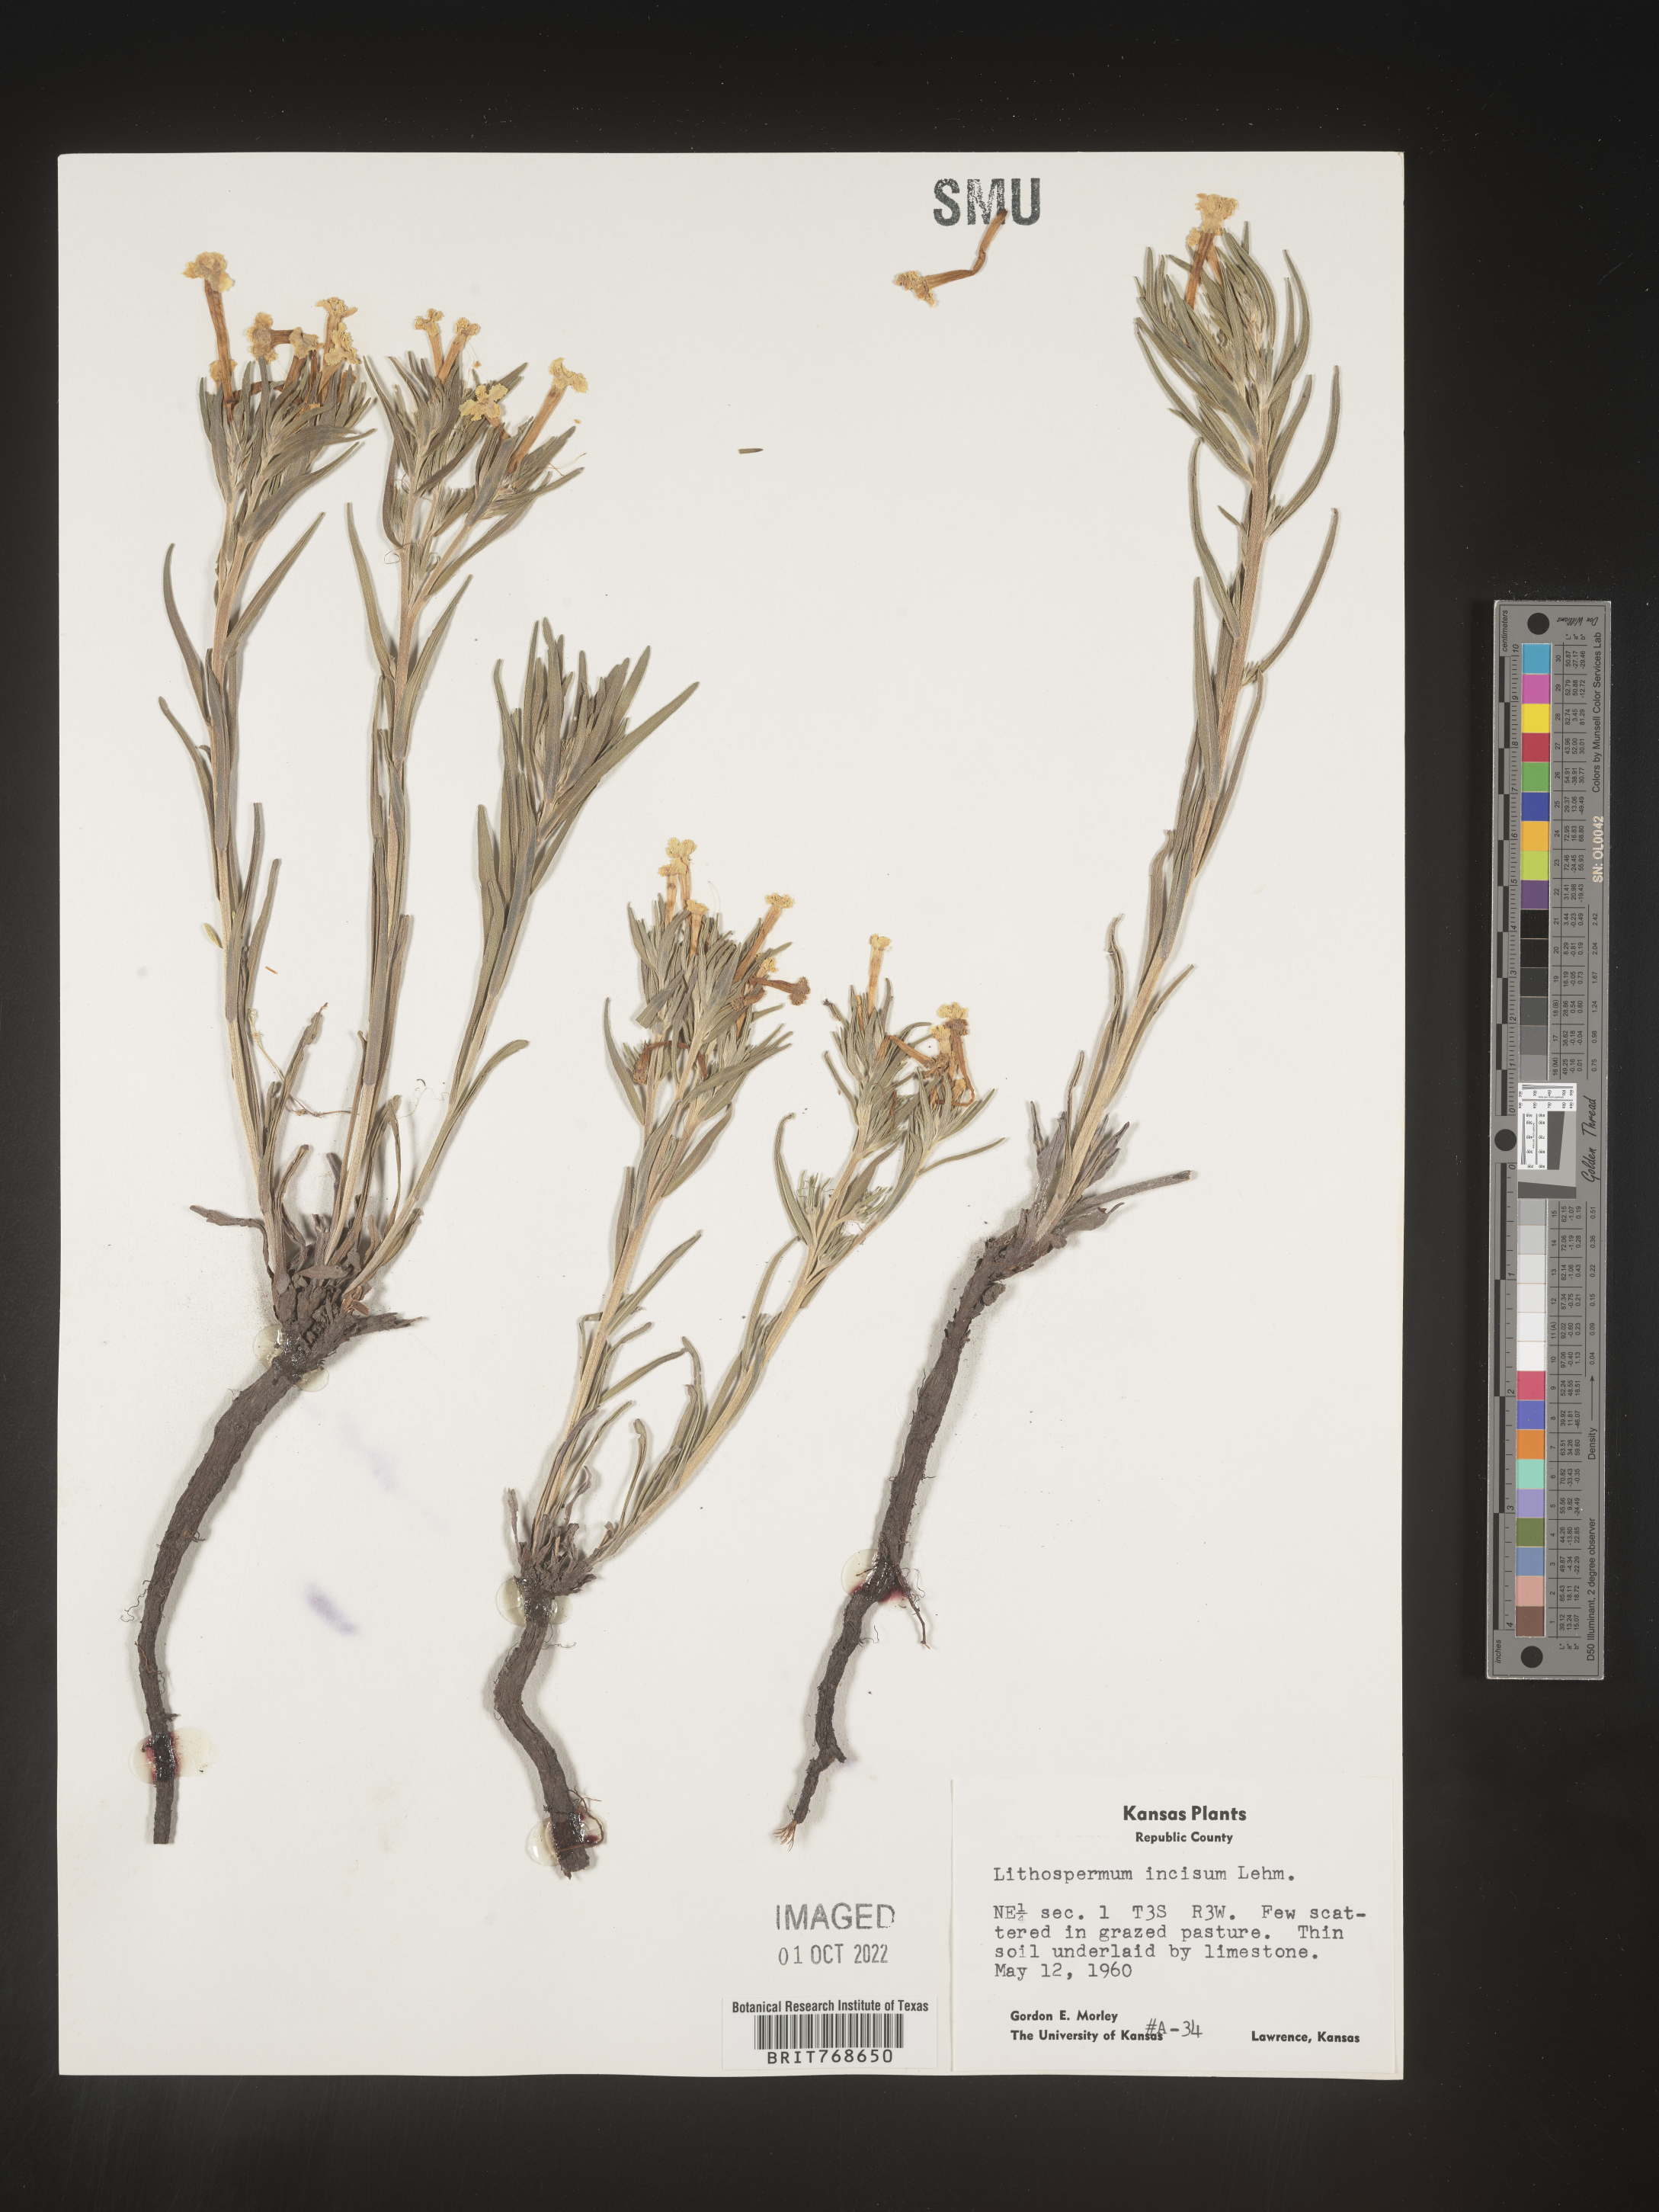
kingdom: Plantae
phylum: Tracheophyta
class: Magnoliopsida
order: Boraginales
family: Boraginaceae
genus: Lithospermum
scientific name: Lithospermum incisum
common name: Fringed gromwell
